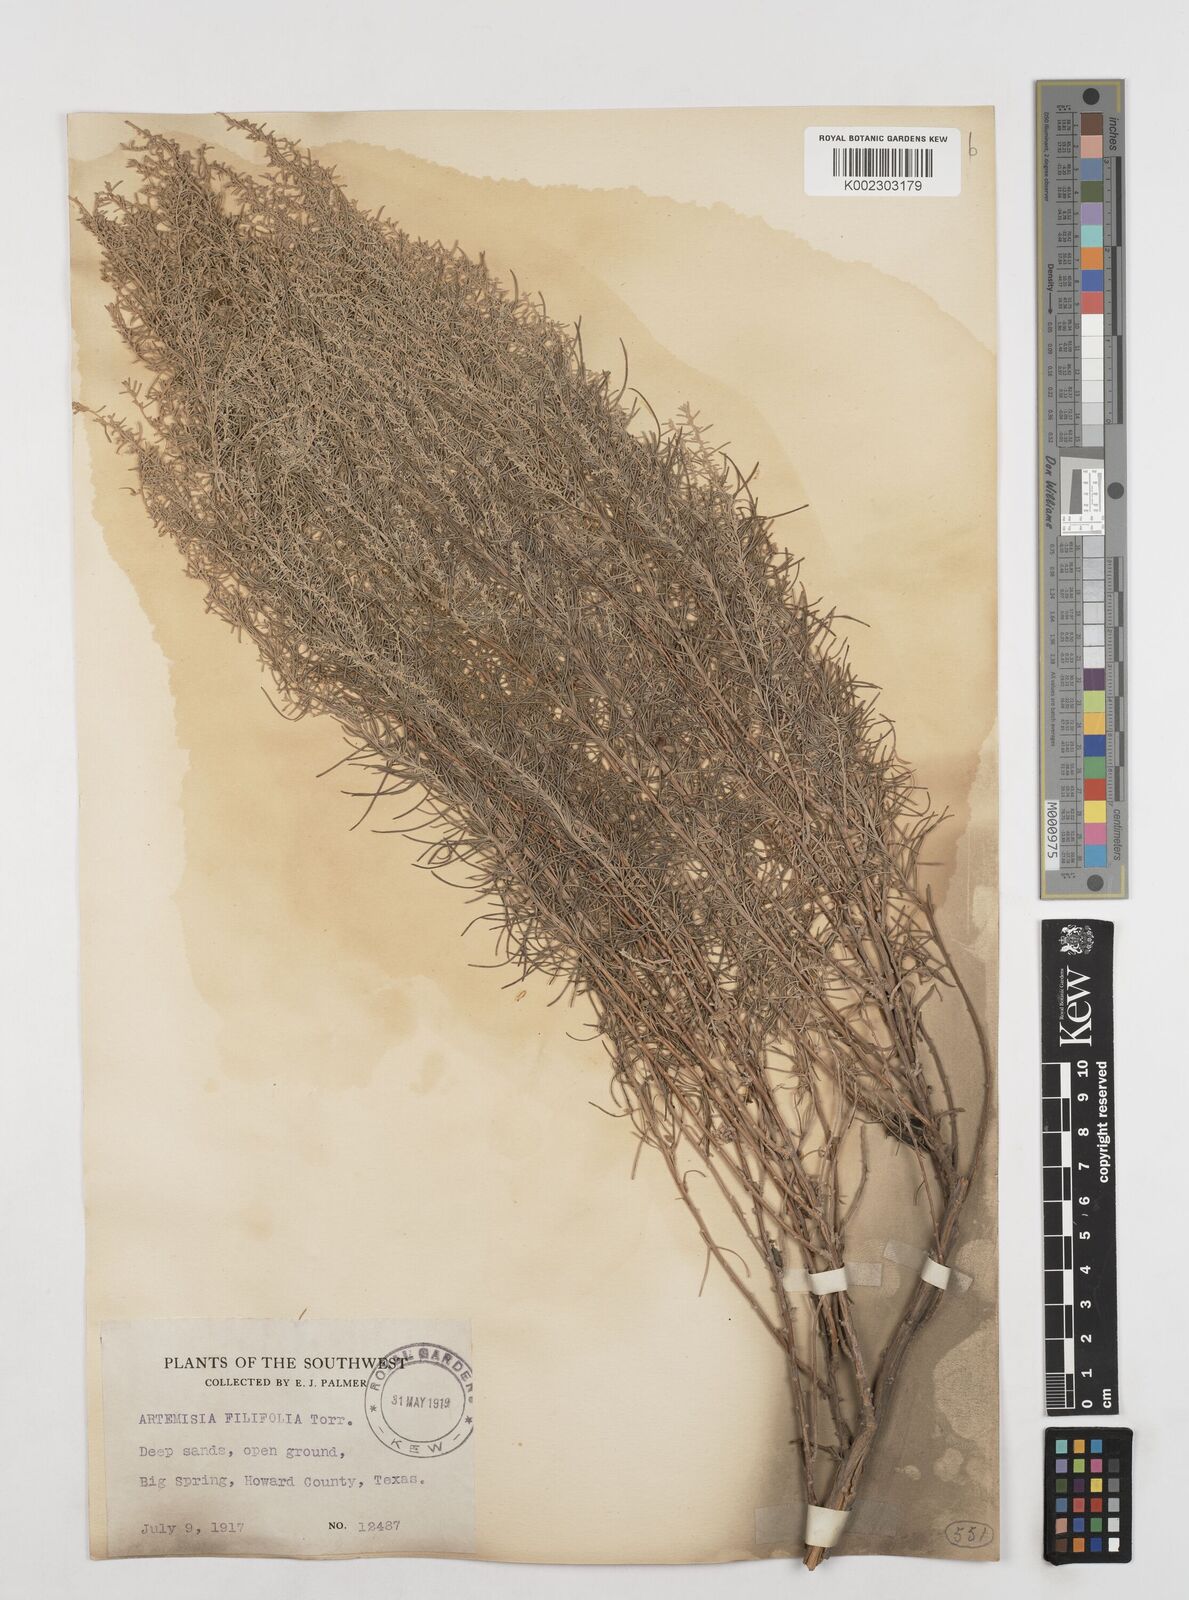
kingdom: Plantae
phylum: Tracheophyta
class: Magnoliopsida
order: Asterales
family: Asteraceae
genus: Artemisia
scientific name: Artemisia filifolia
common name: Sand-sage
